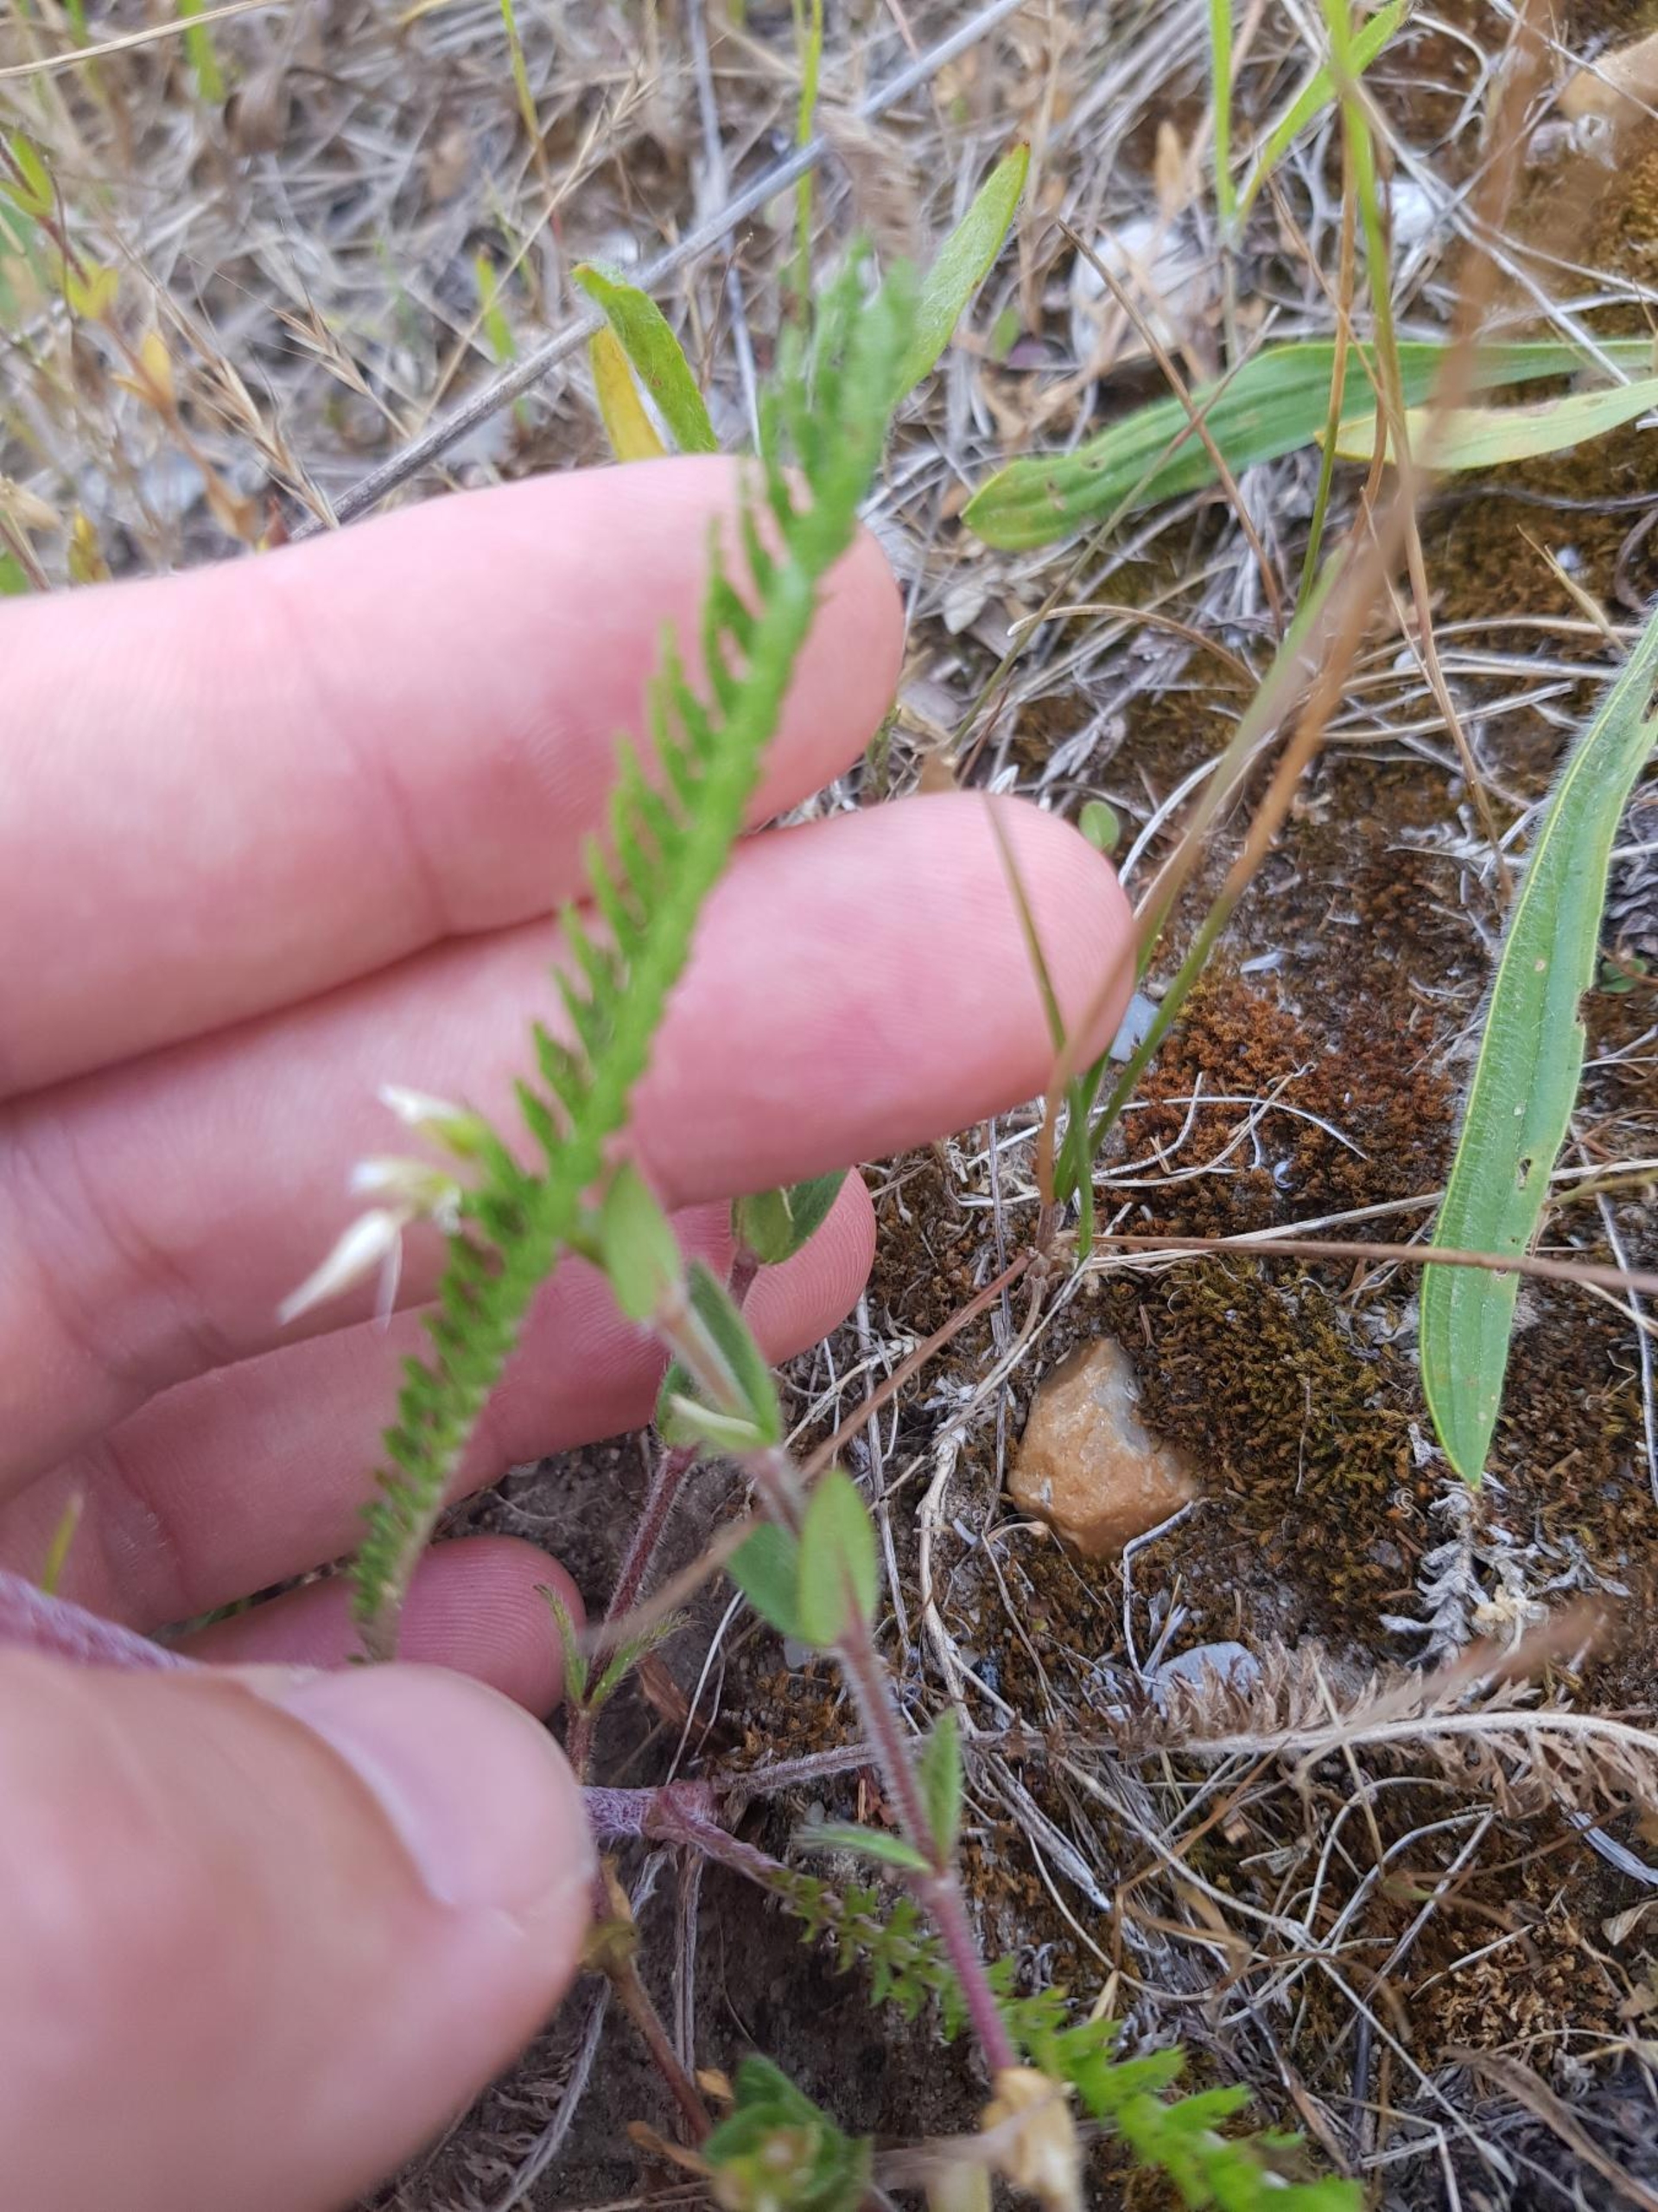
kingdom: Plantae
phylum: Tracheophyta
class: Magnoliopsida
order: Asterales
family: Asteraceae
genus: Achillea
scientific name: Achillea millefolium
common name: Almindelig røllike
